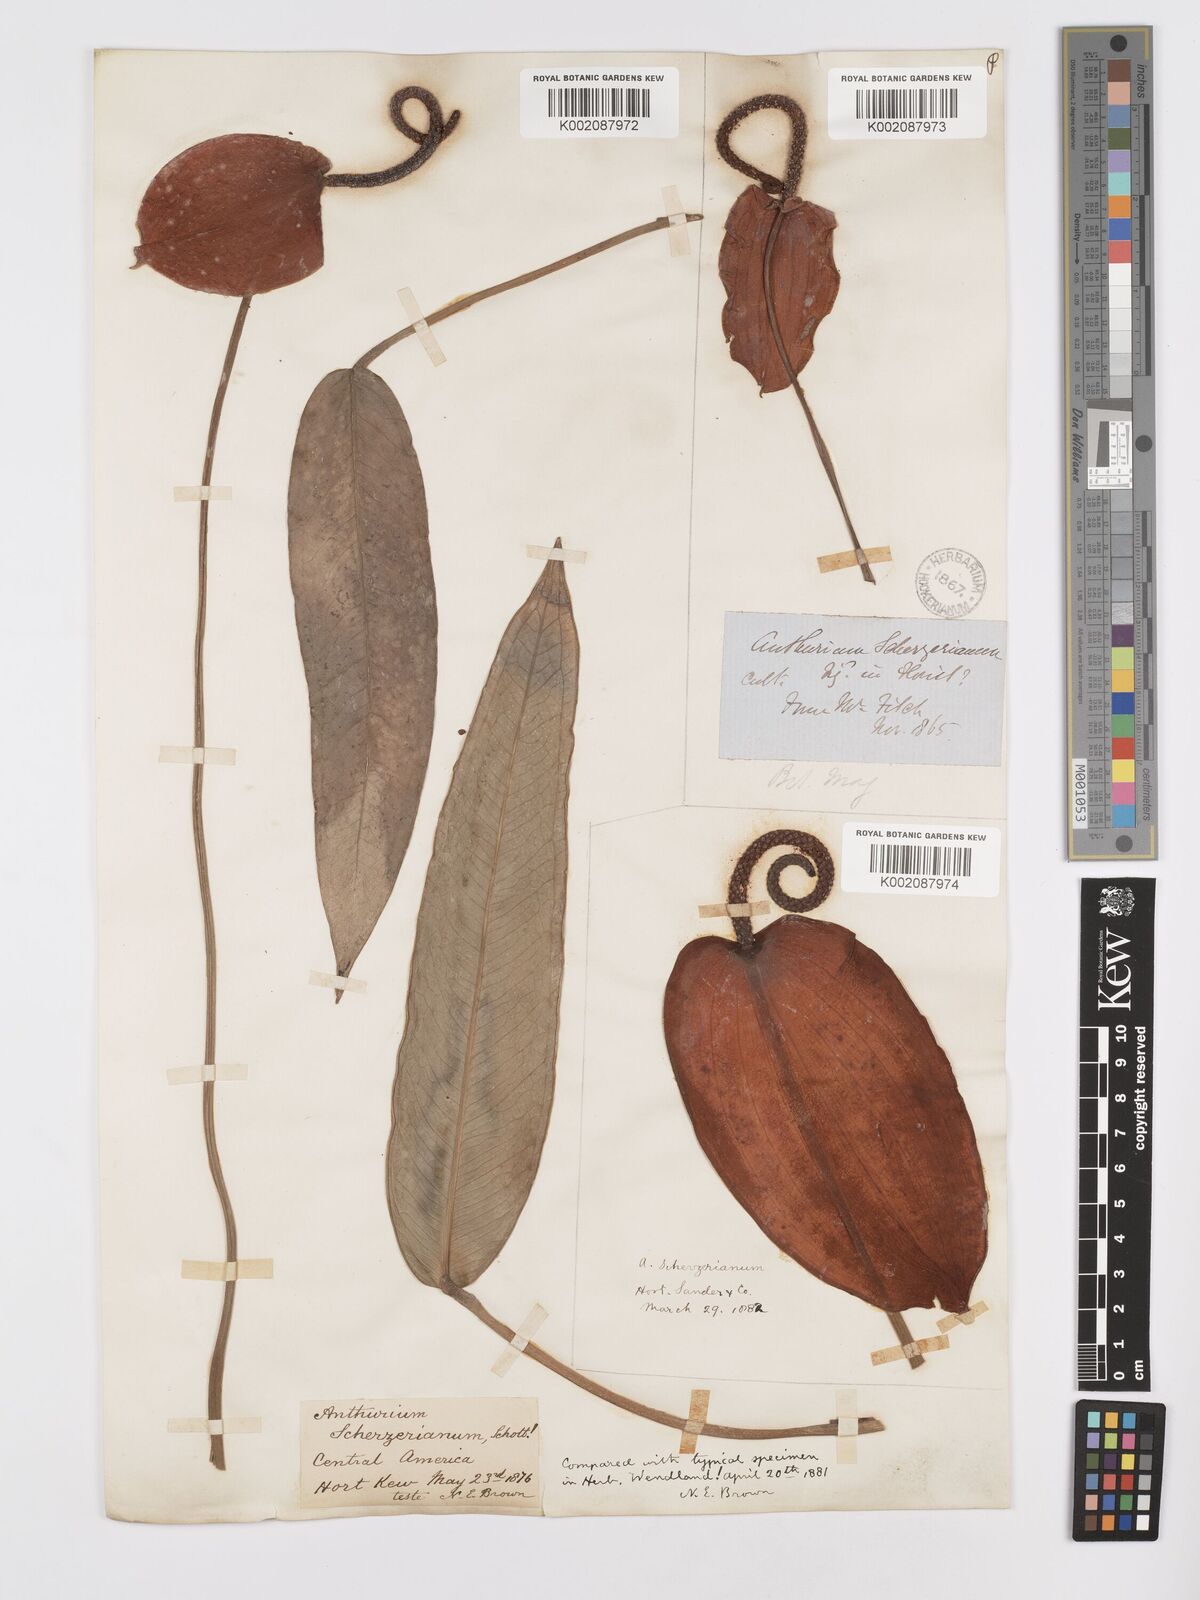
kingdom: Plantae
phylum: Tracheophyta
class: Liliopsida
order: Alismatales
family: Araceae
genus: Anthurium
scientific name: Anthurium scherzerianum
